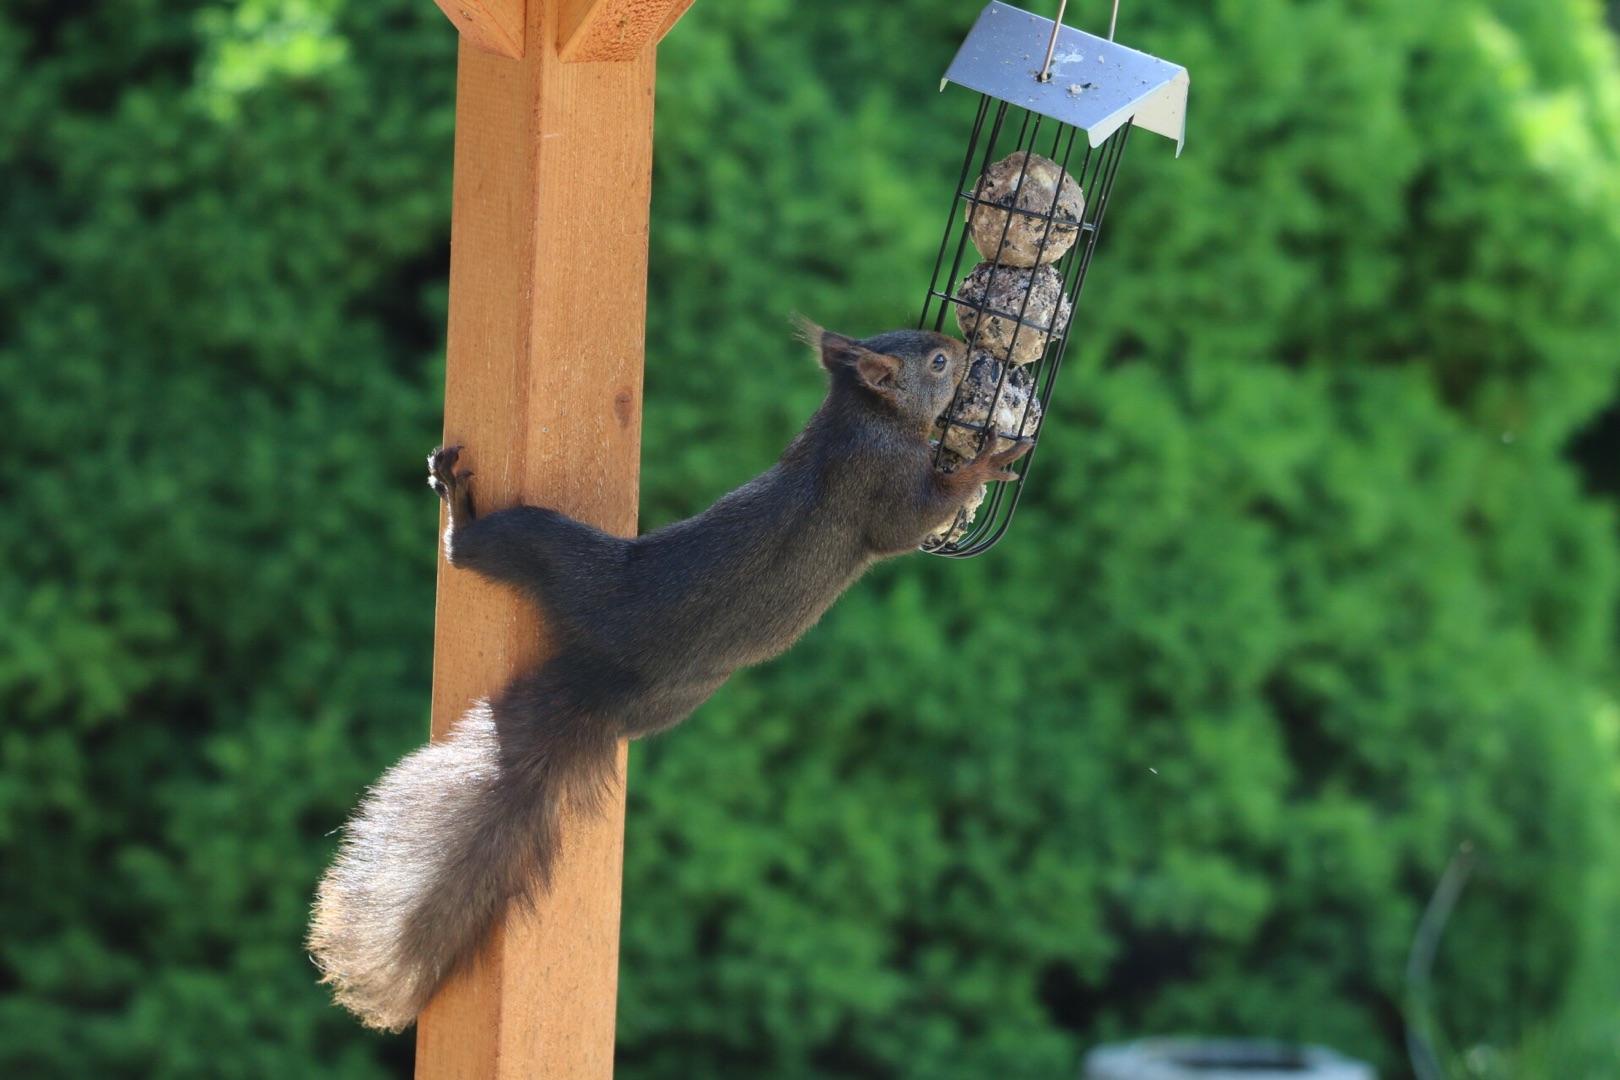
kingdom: Animalia
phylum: Chordata
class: Mammalia
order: Rodentia
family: Sciuridae
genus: Sciurus
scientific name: Sciurus vulgaris
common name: Egern
